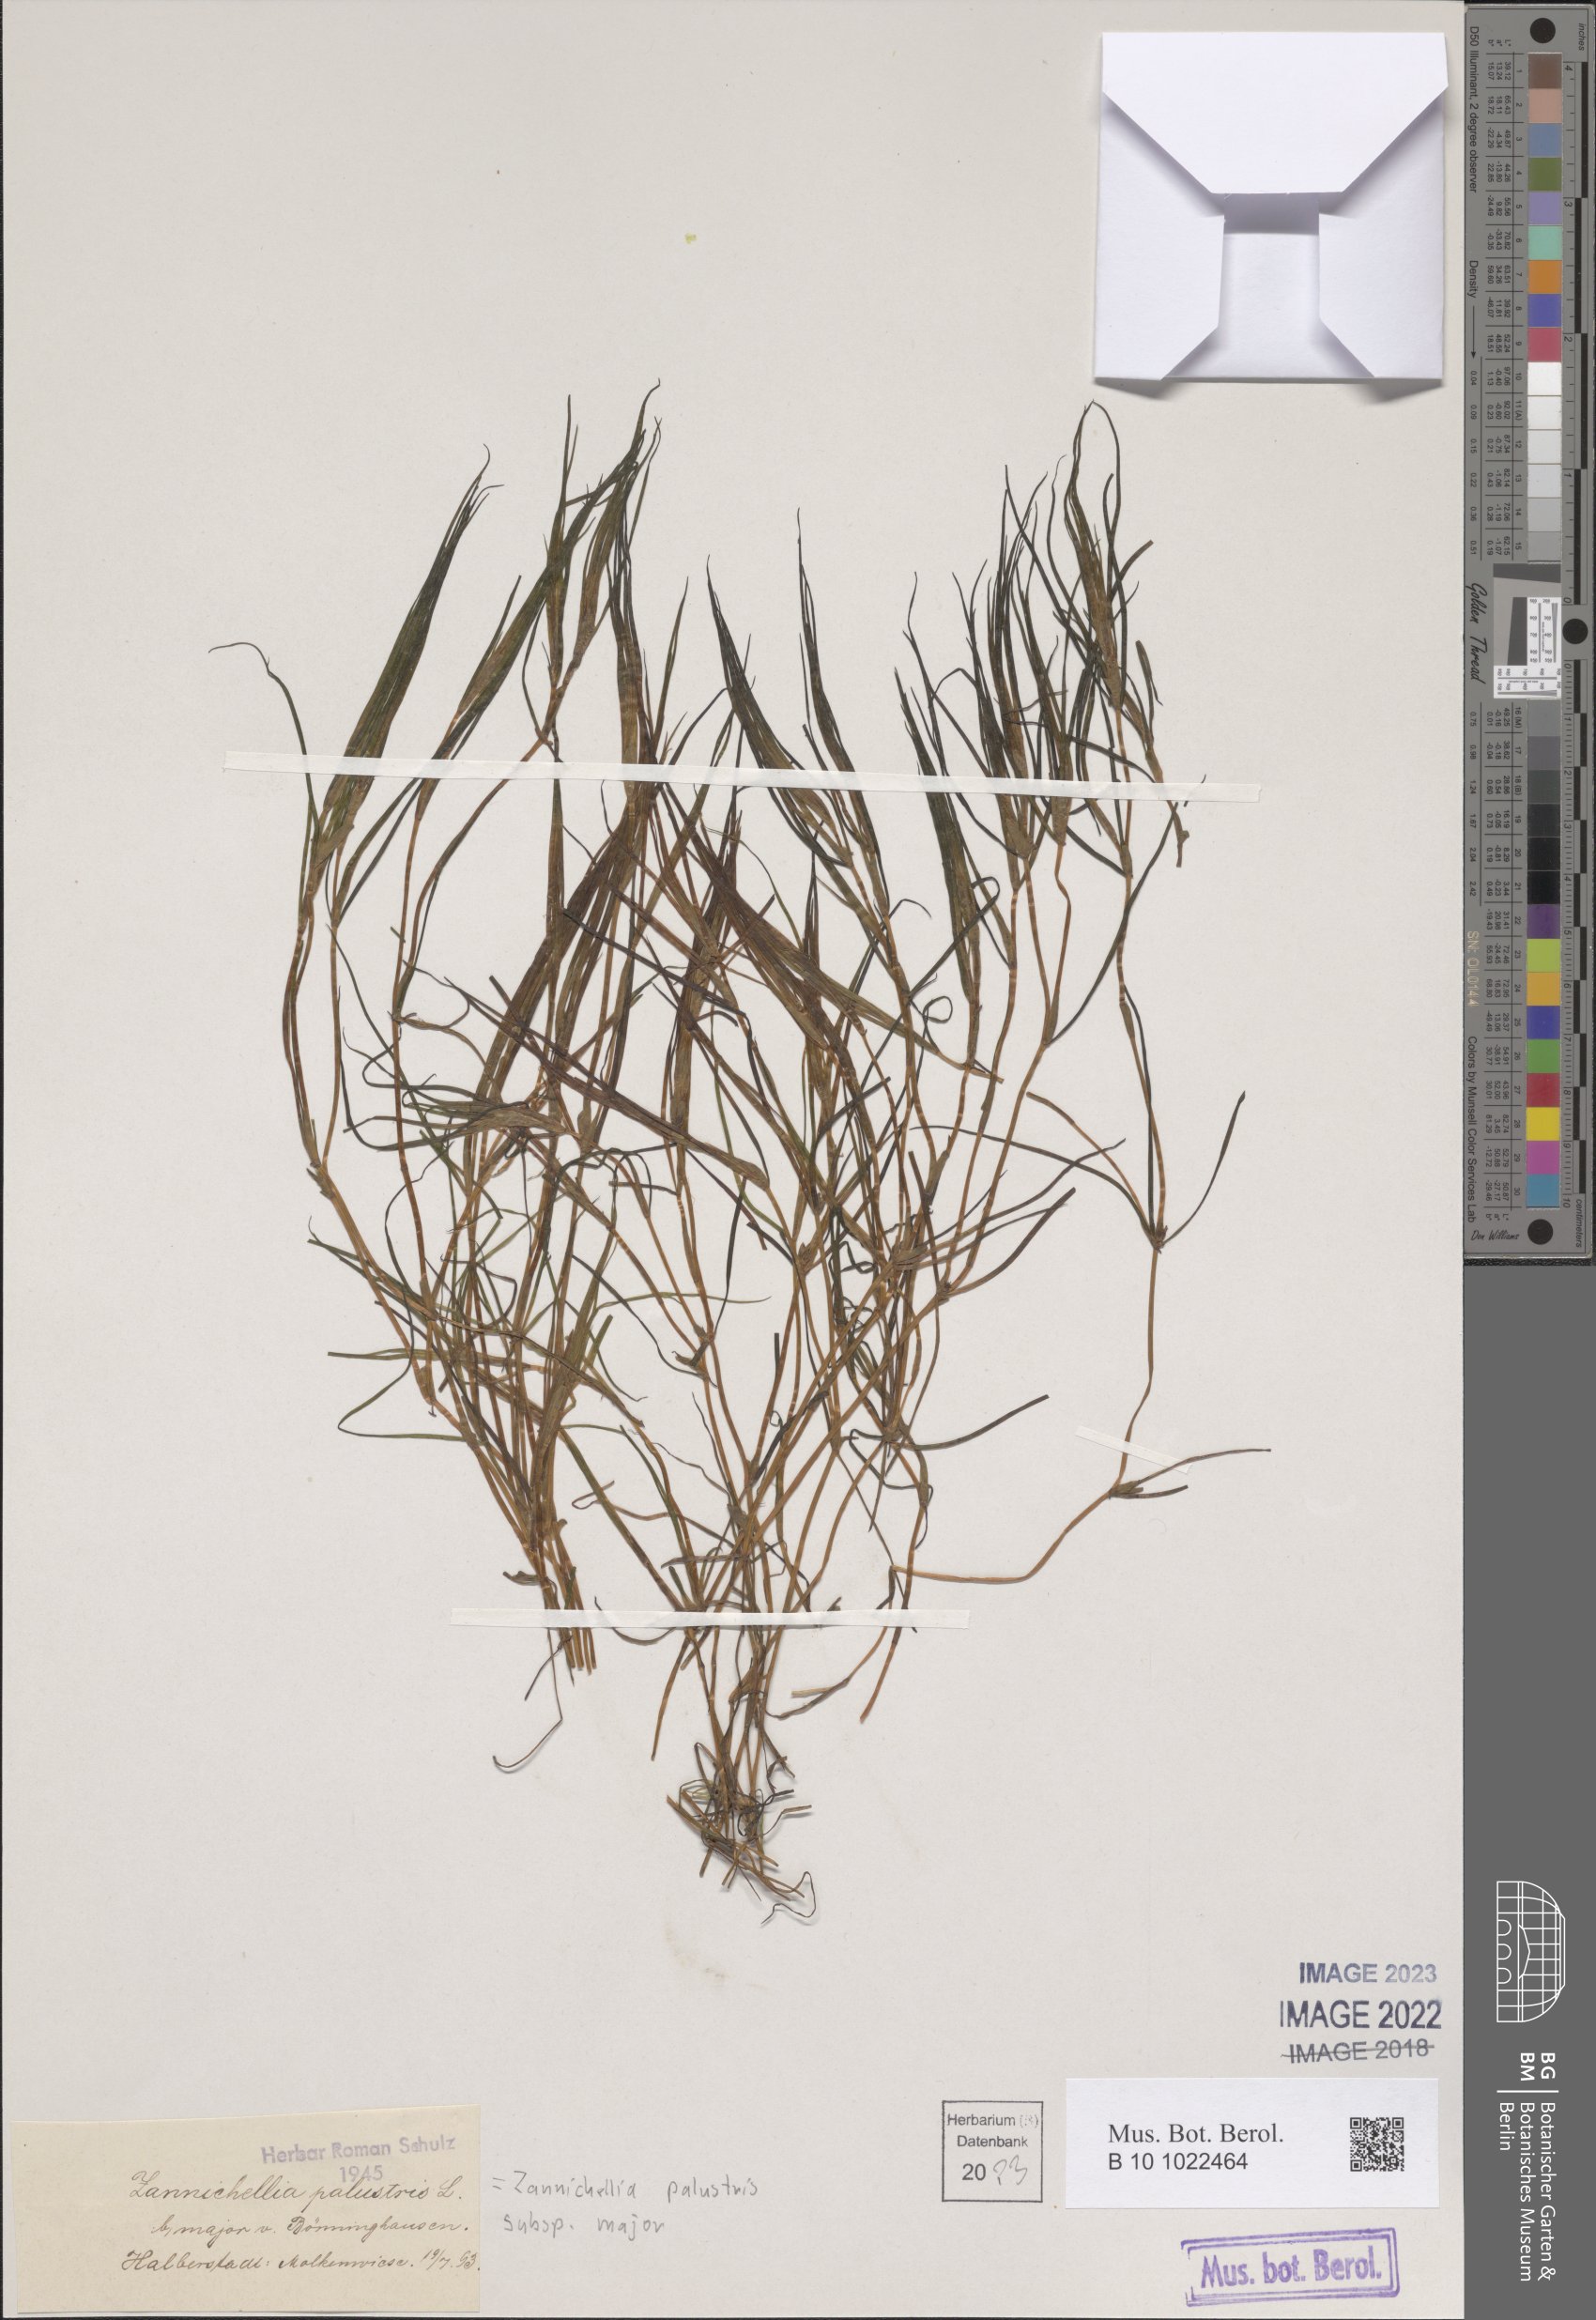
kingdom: Plantae
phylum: Tracheophyta
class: Liliopsida
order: Alismatales
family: Potamogetonaceae
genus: Zannichellia
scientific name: Zannichellia palustris
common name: Horned pondweed
